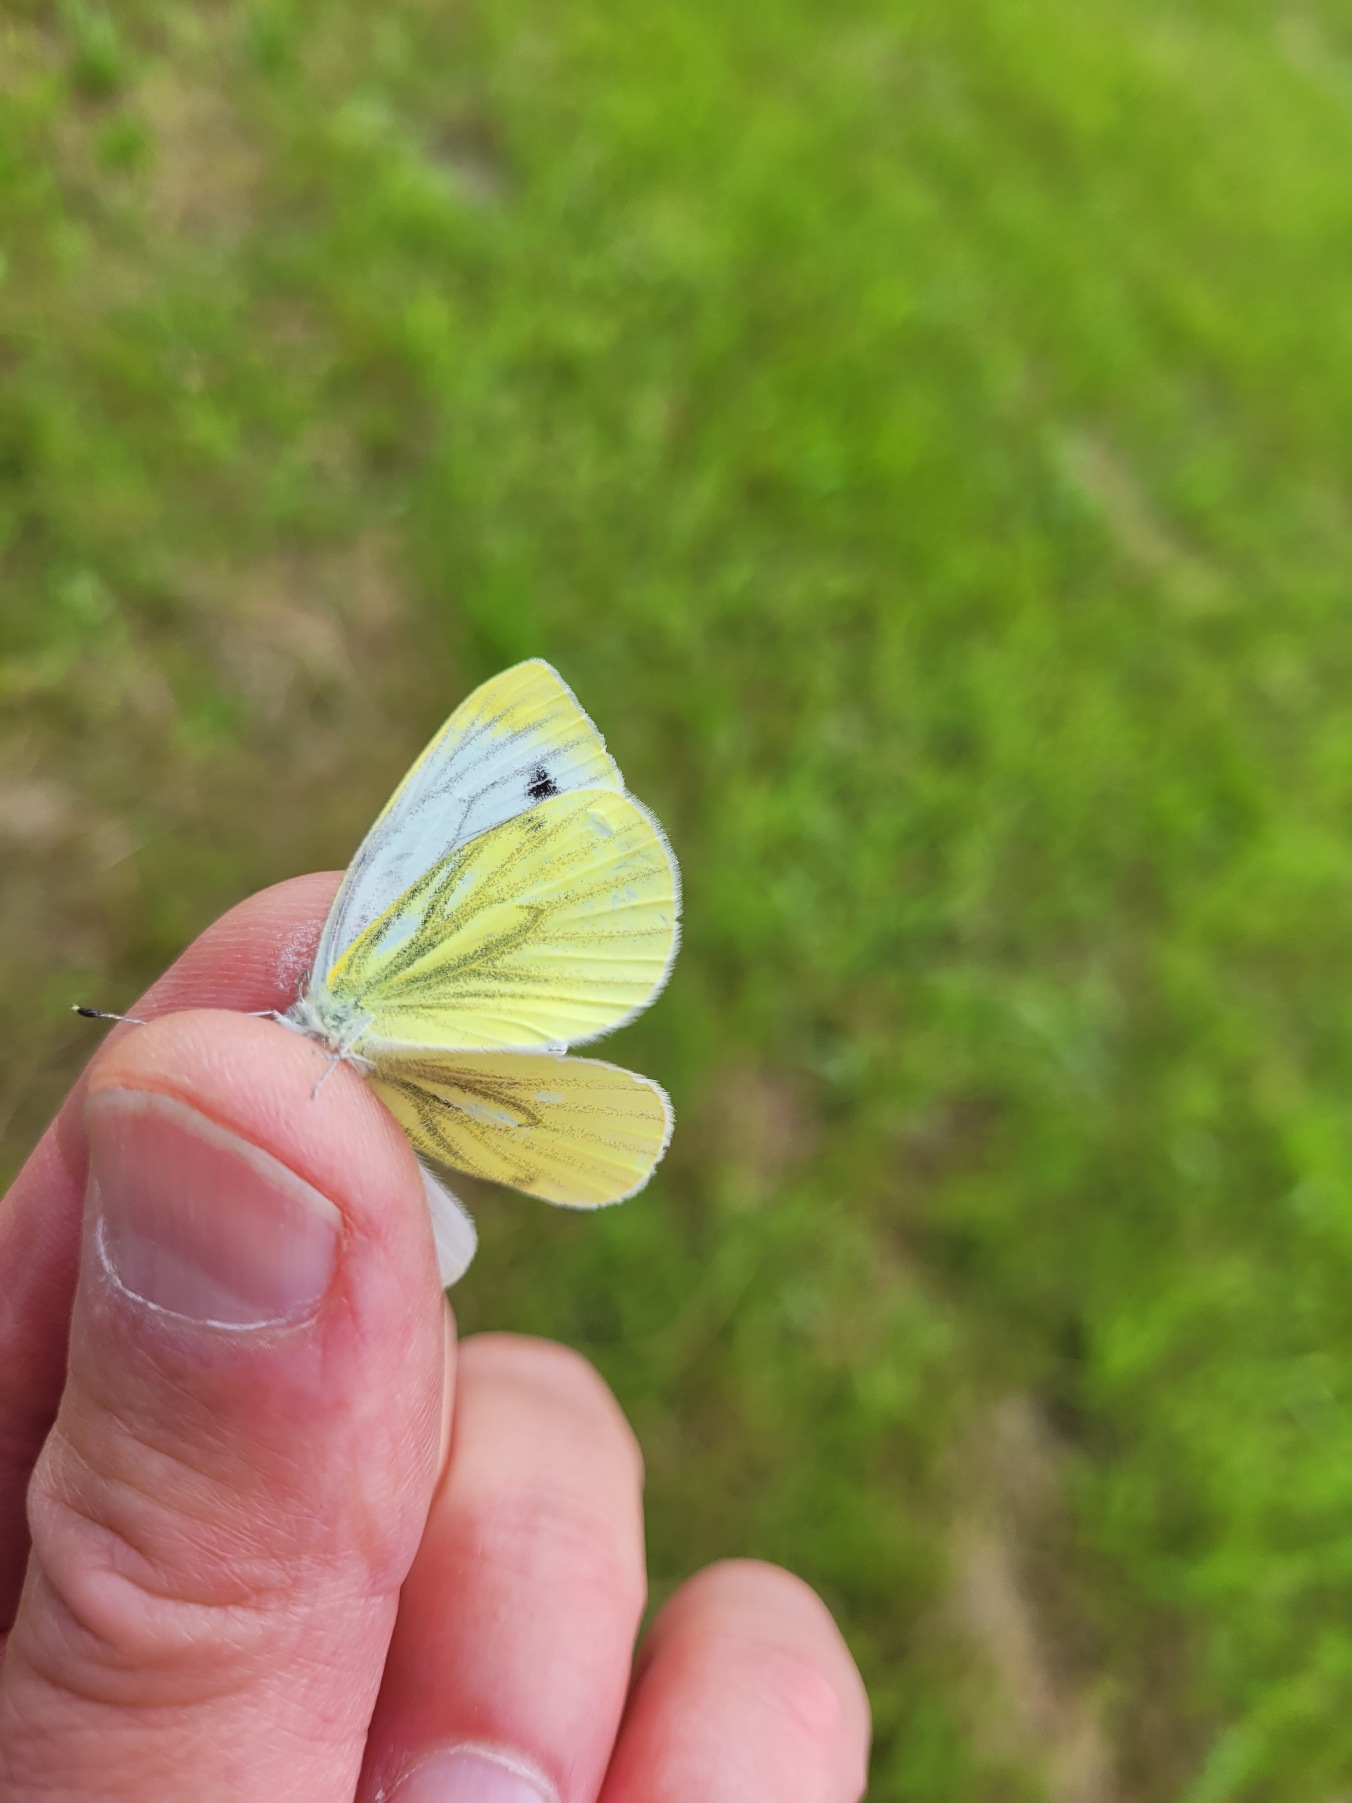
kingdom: Animalia
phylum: Arthropoda
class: Insecta
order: Lepidoptera
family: Pieridae
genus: Pieris
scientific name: Pieris napi
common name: Grønåret kålsommerfugl
